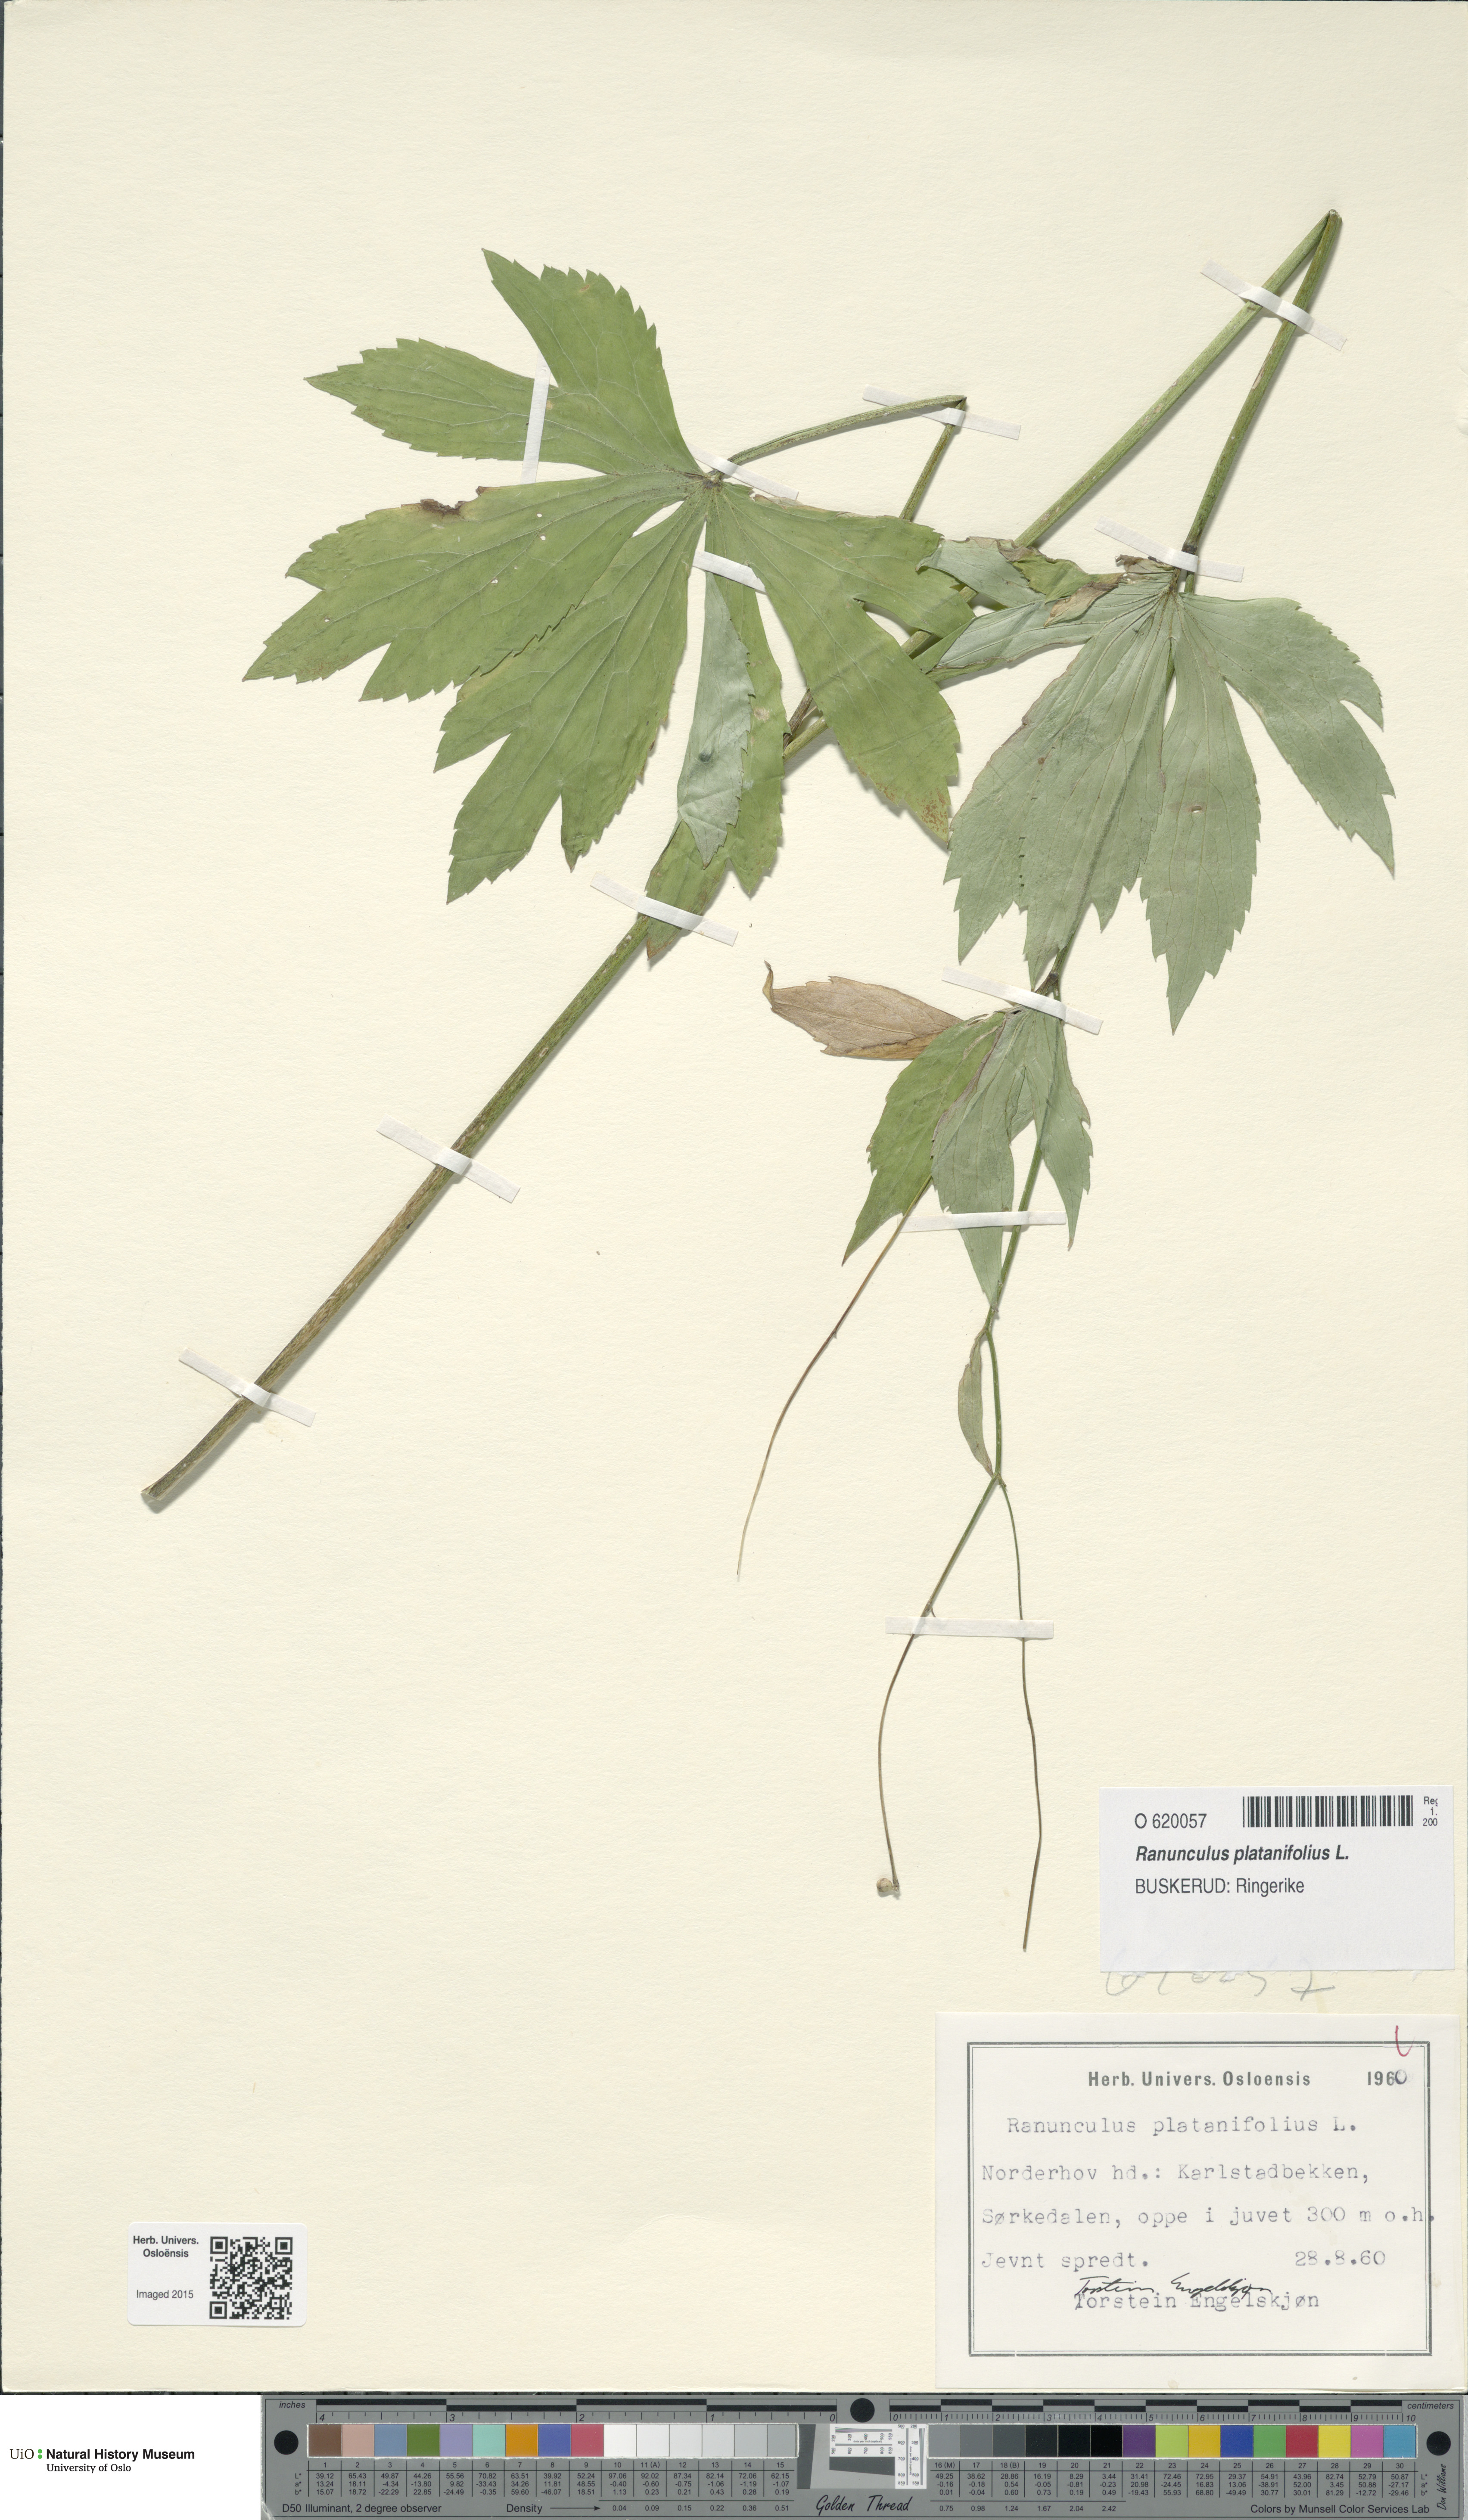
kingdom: Plantae
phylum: Tracheophyta
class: Magnoliopsida
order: Ranunculales
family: Ranunculaceae
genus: Ranunculus
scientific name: Ranunculus platanifolius
